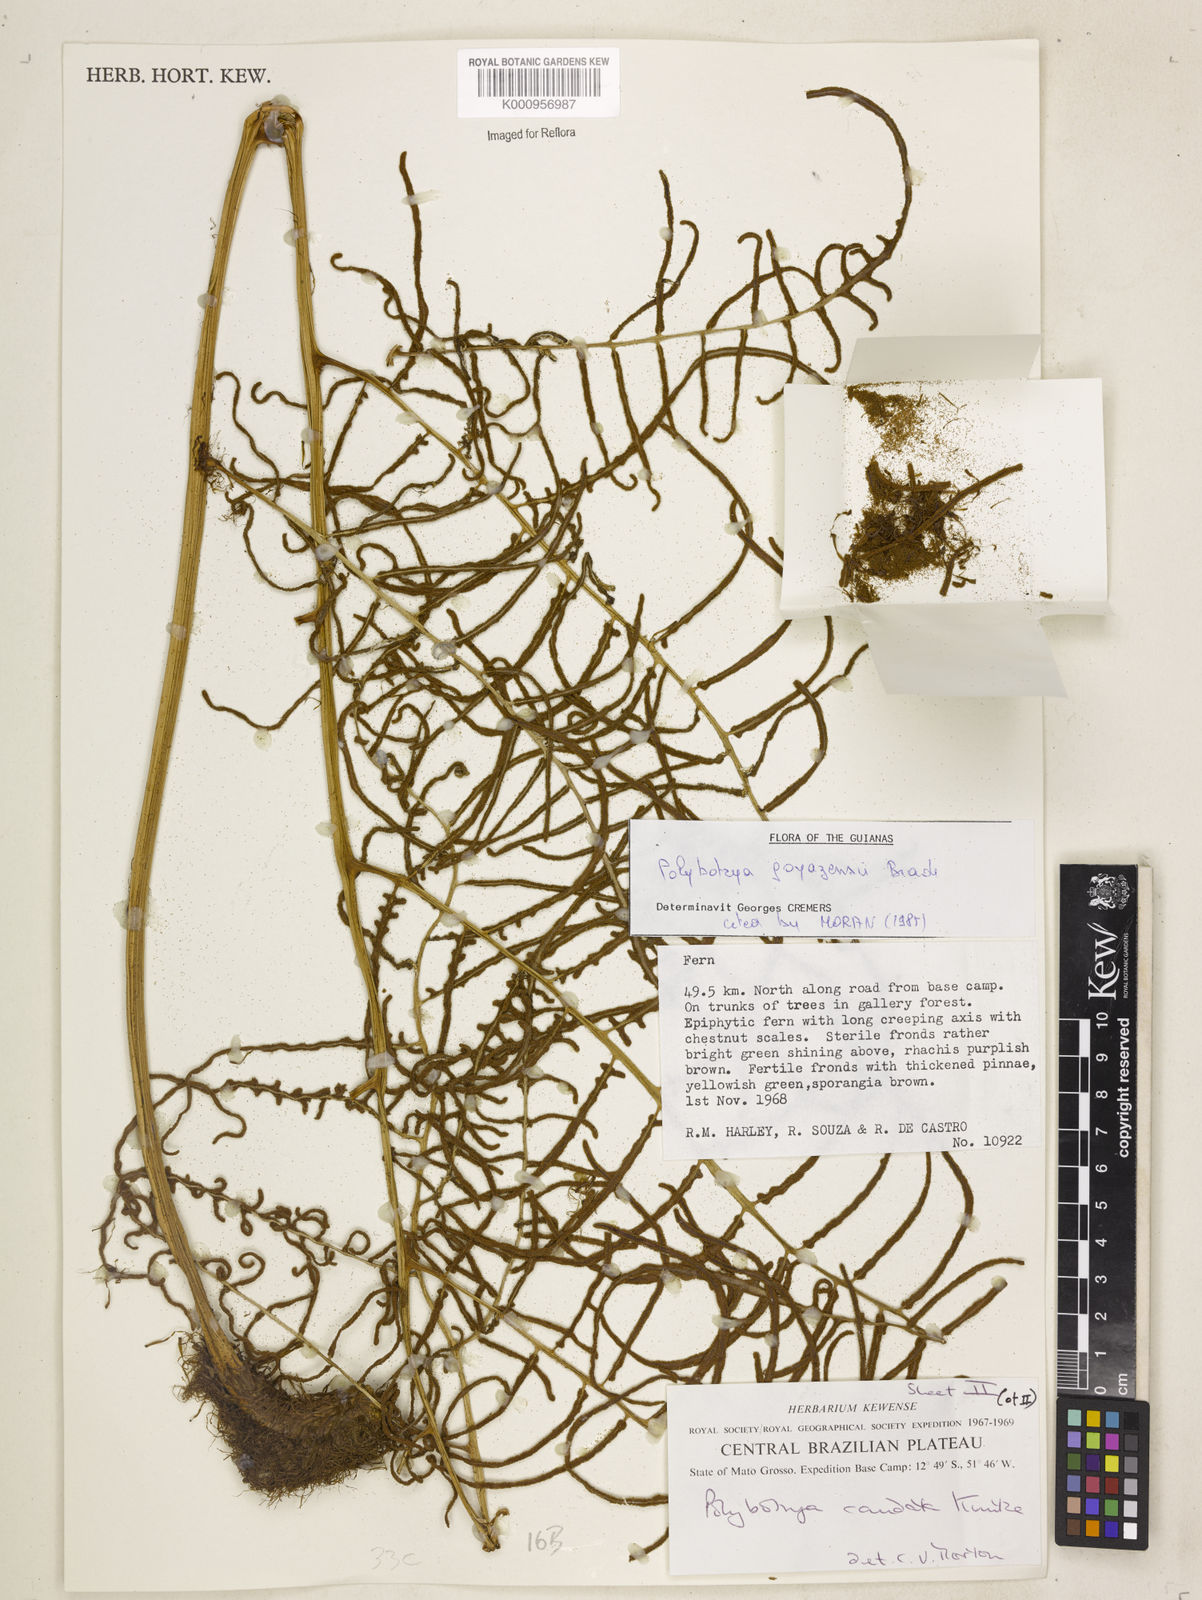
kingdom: Plantae
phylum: Tracheophyta
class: Polypodiopsida
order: Polypodiales
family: Dryopteridaceae
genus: Polybotrya
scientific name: Polybotrya goyazensis
